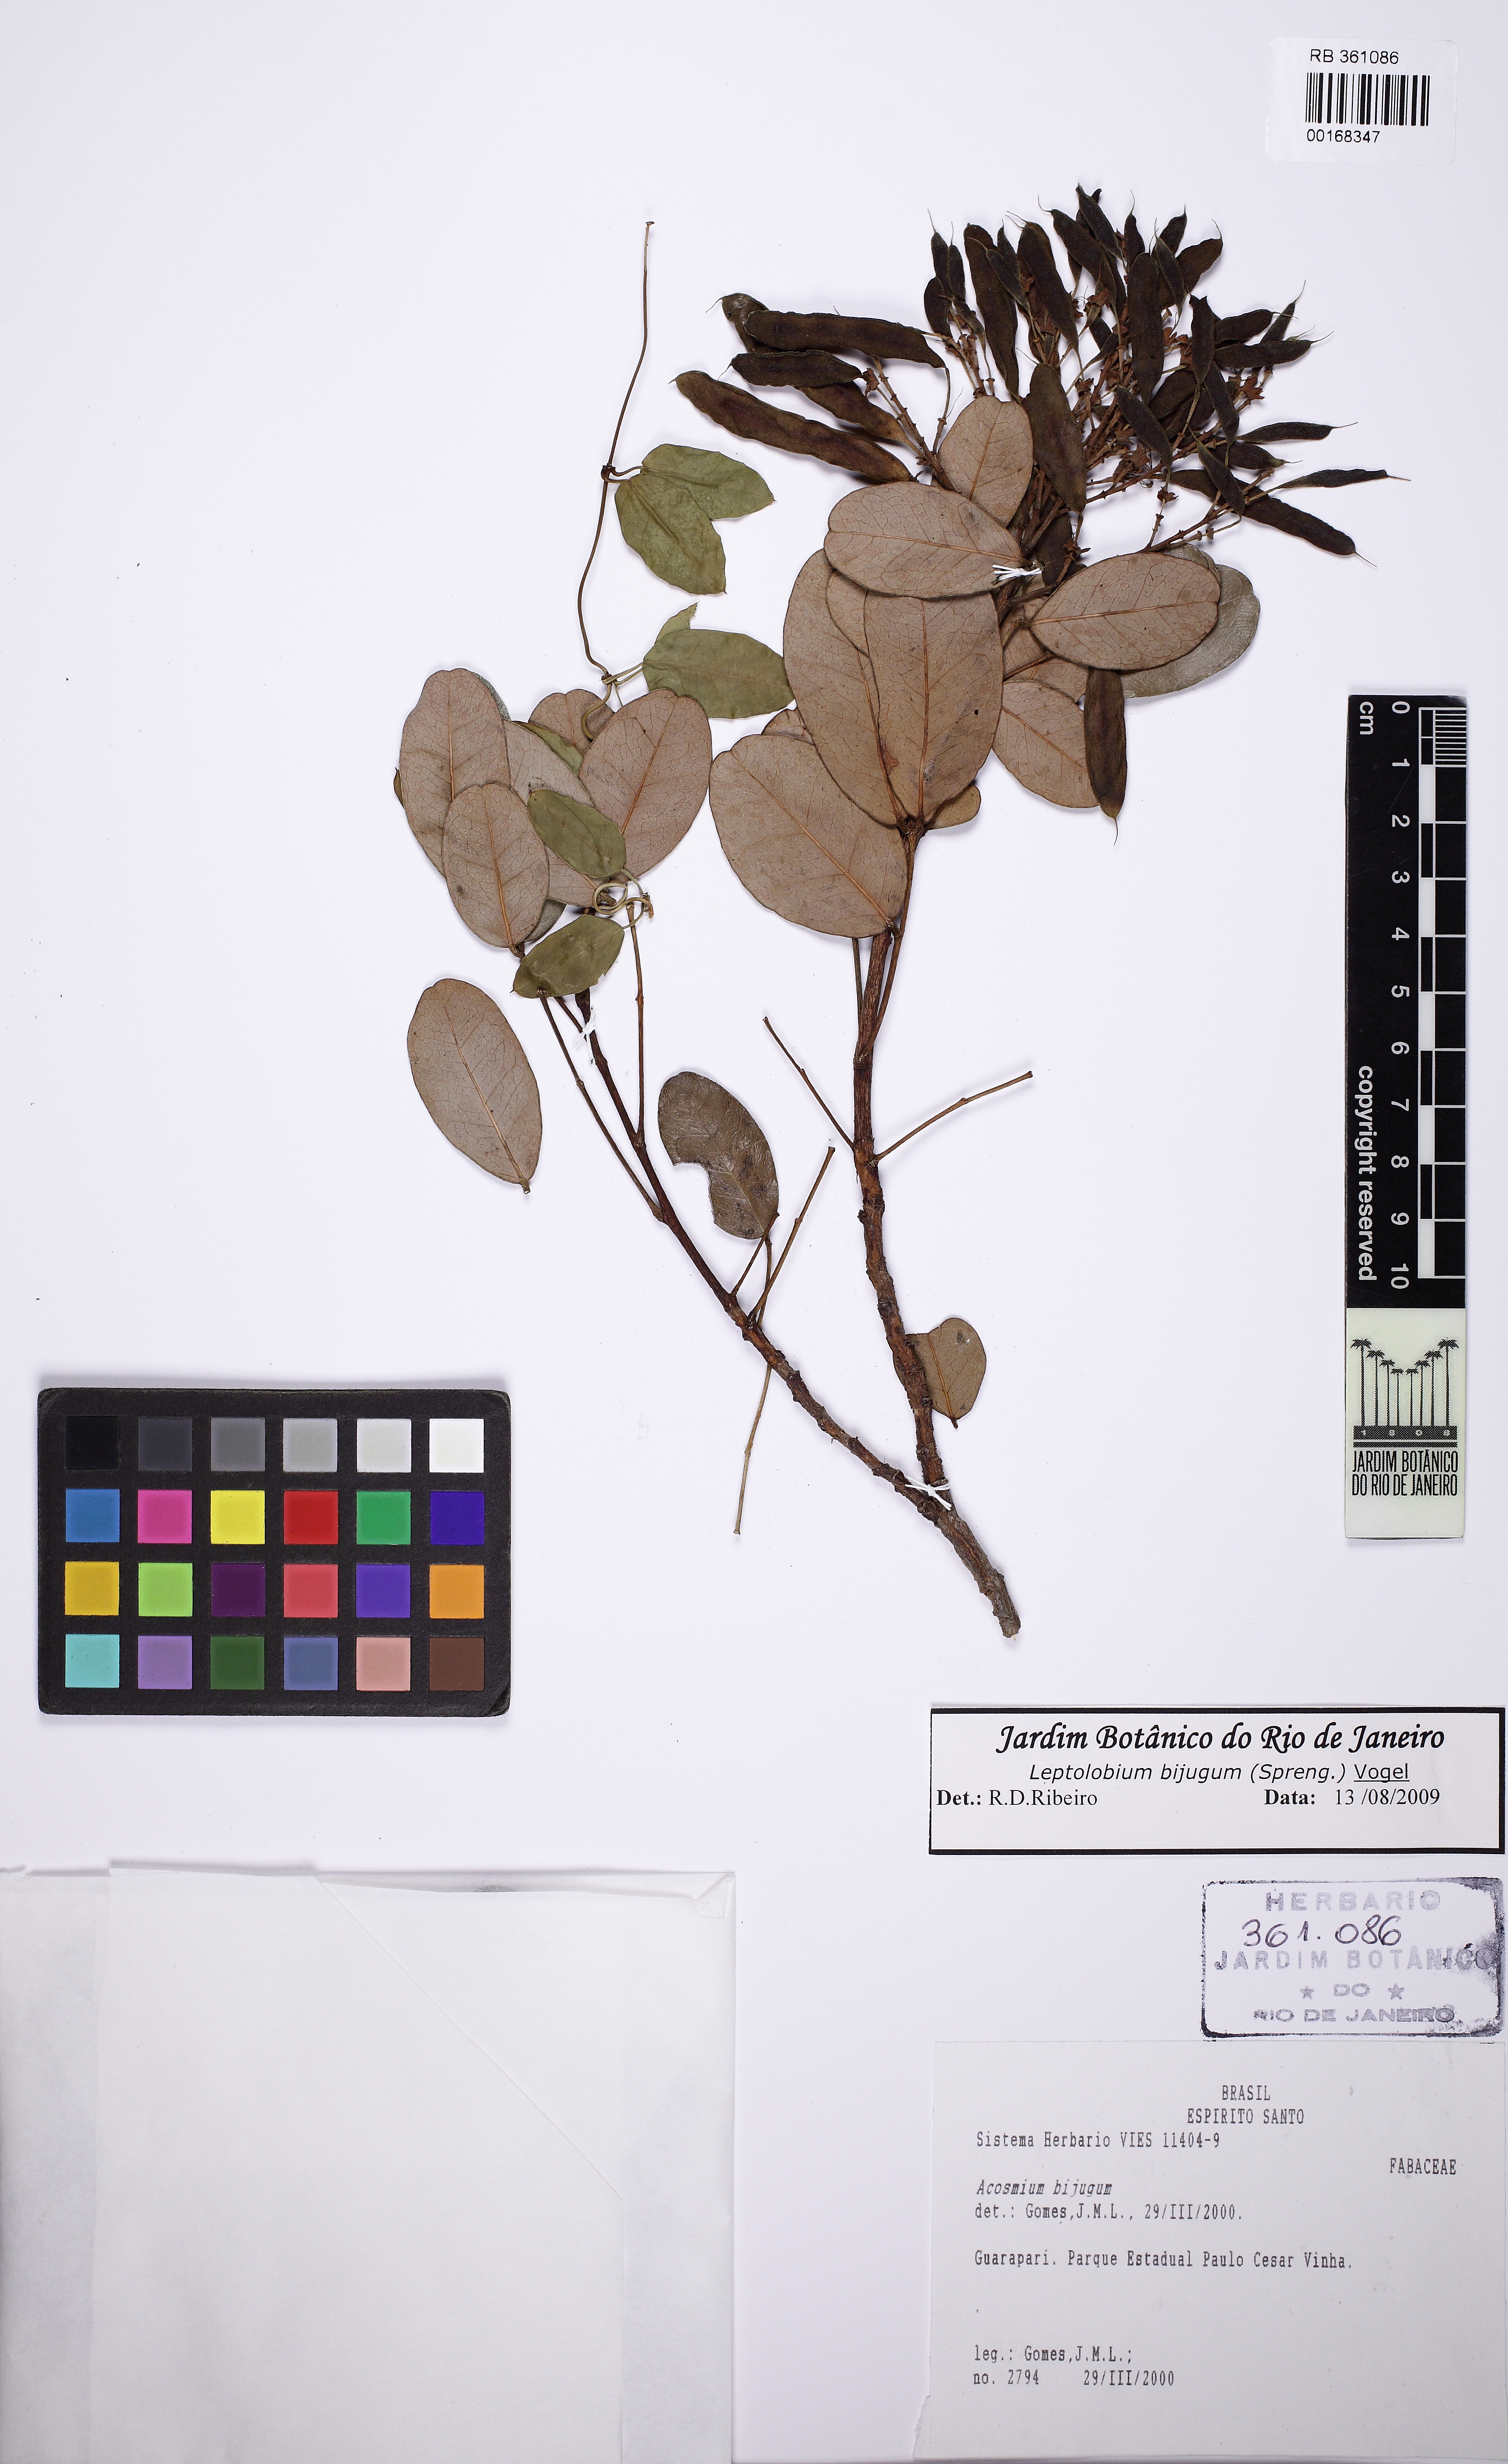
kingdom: Plantae
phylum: Tracheophyta
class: Magnoliopsida
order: Fabales
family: Fabaceae
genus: Leptolobium
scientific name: Leptolobium bijugum
